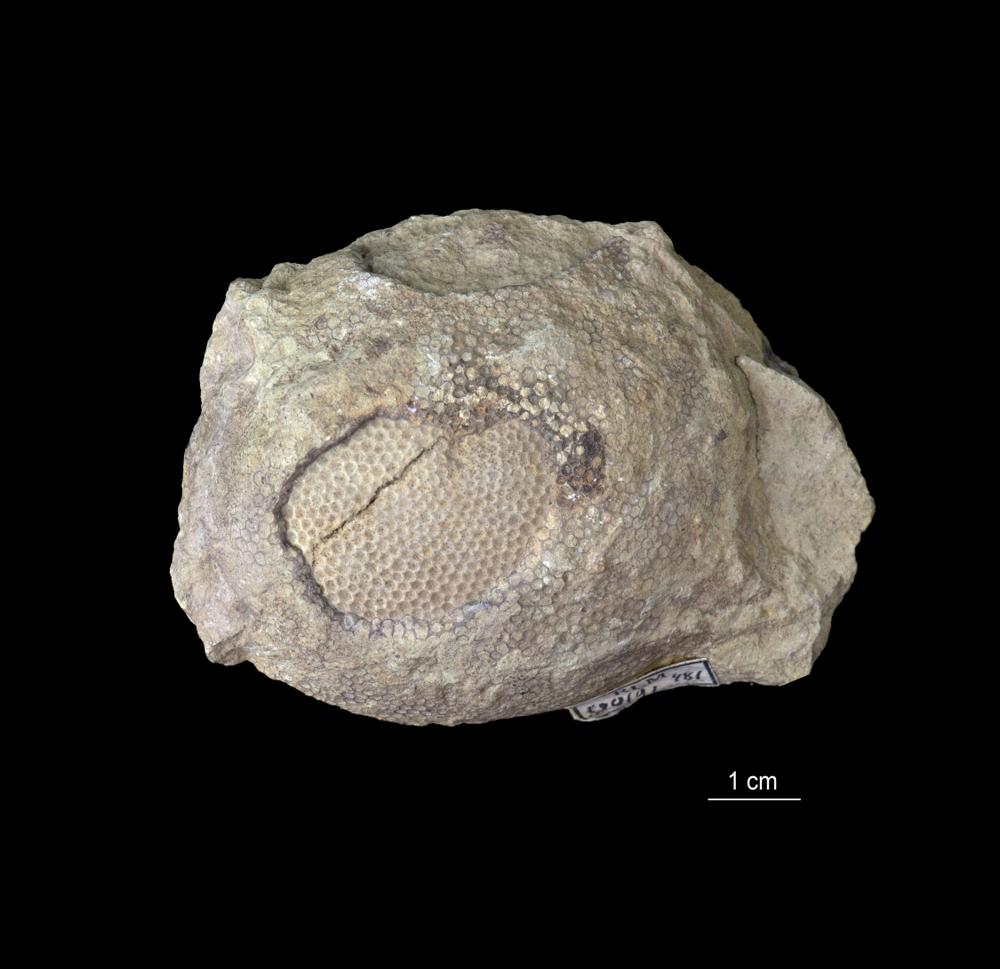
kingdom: Plantae
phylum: Chlorophyta
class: Ulvophyceae
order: Cyclocrinales
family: Cyclocrinaceae
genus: Mastopora
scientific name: Mastopora concava
